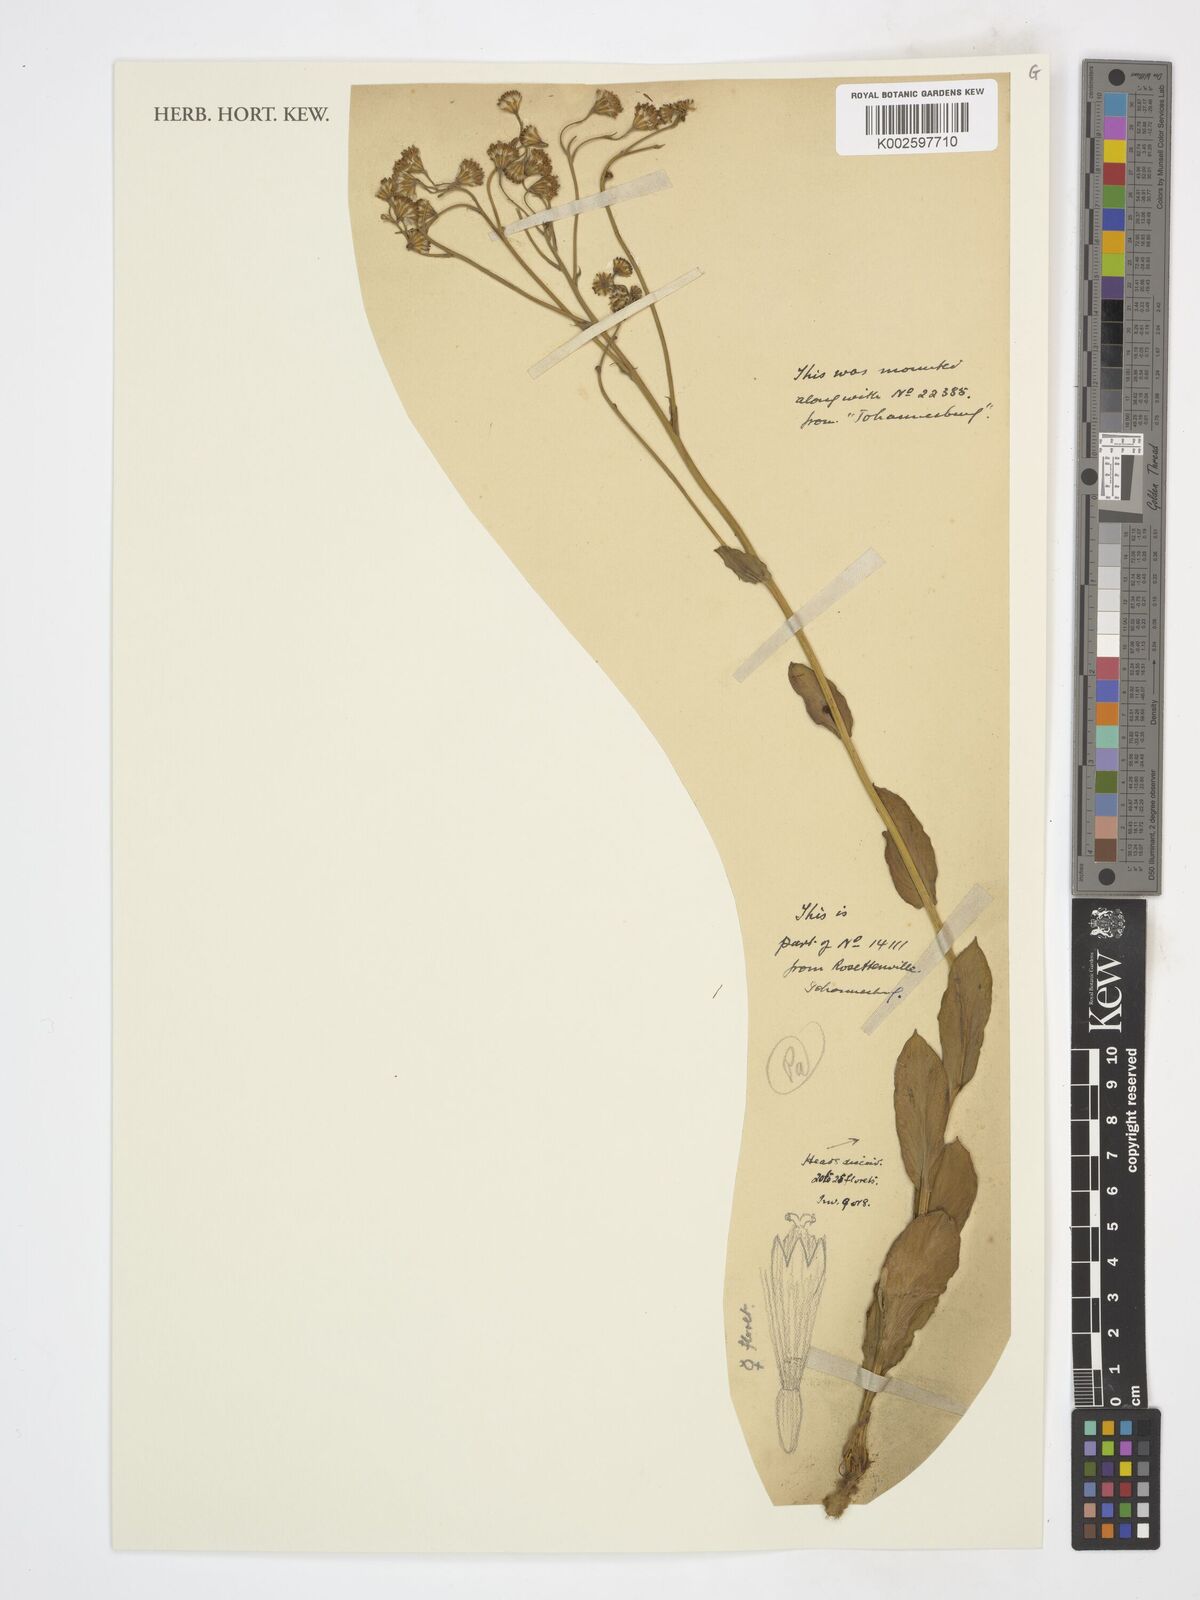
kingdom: Plantae
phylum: Tracheophyta
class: Magnoliopsida
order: Asterales
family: Asteraceae
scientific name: Asteraceae
